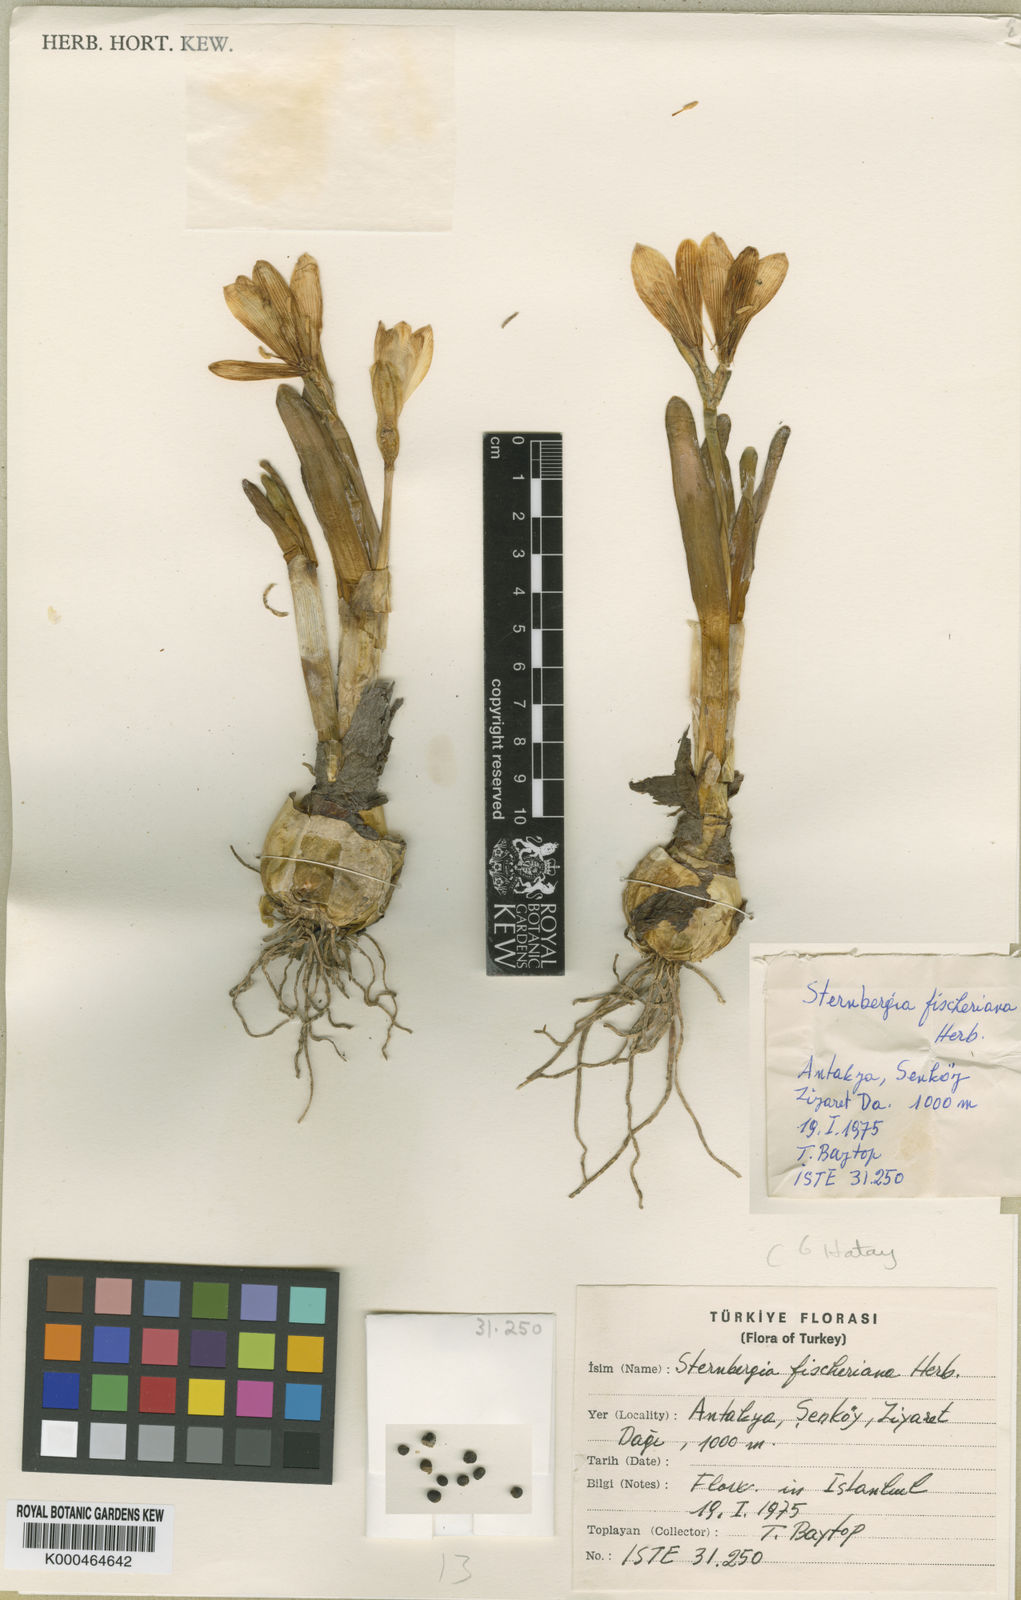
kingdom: Plantae
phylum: Tracheophyta
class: Liliopsida
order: Asparagales
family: Amaryllidaceae
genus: Sternbergia
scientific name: Sternbergia
